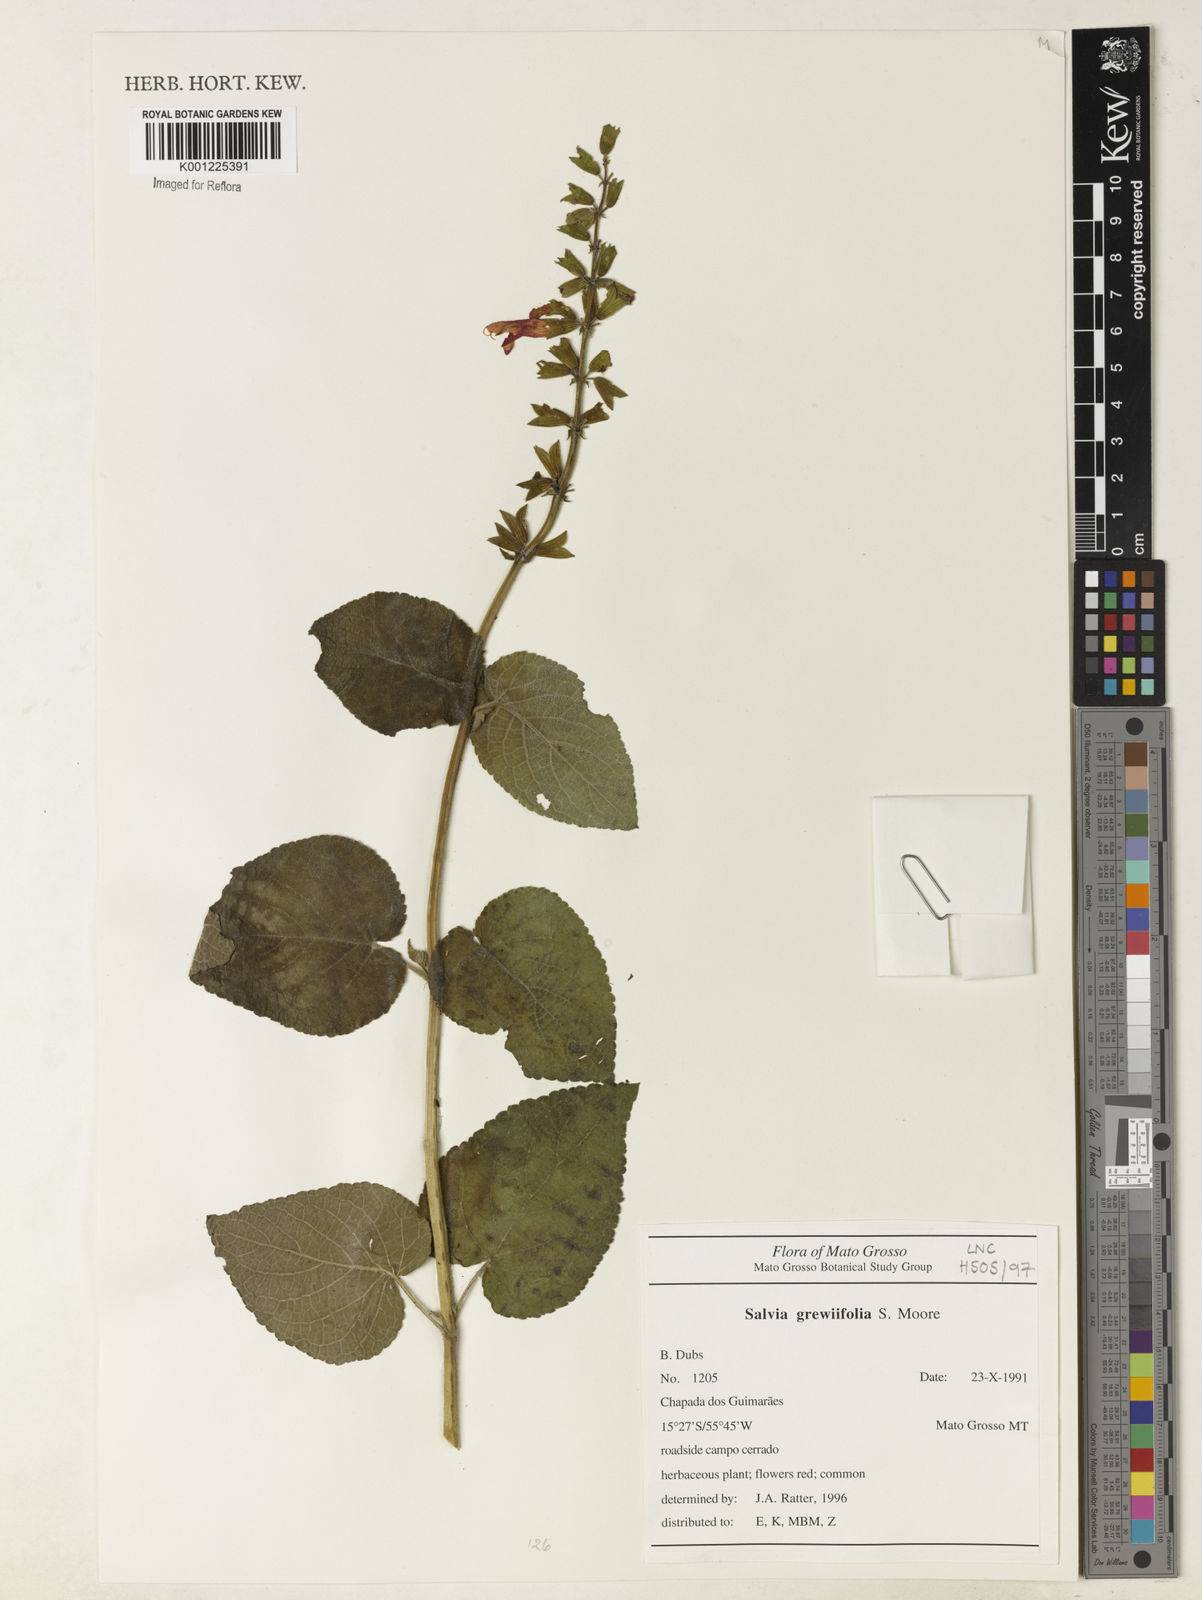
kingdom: Plantae
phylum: Tracheophyta
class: Magnoliopsida
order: Lamiales
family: Lamiaceae
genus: Salvia
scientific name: Salvia grewiifolia
